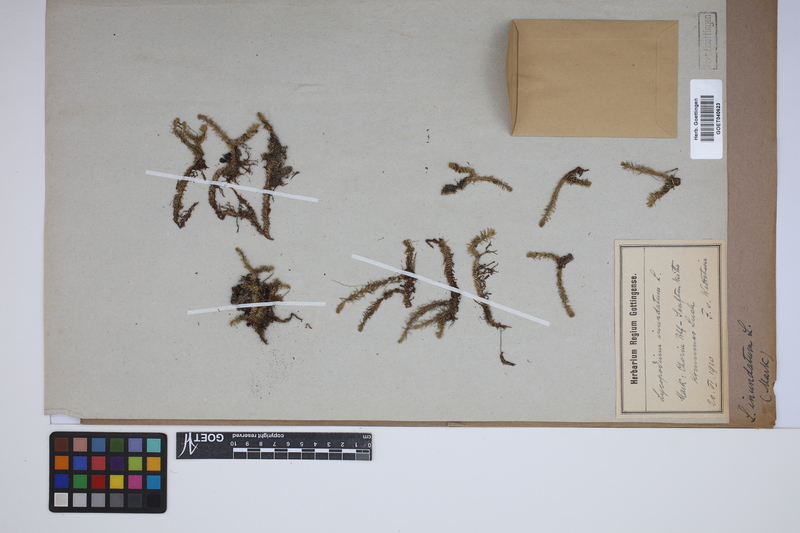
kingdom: Plantae
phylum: Tracheophyta
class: Lycopodiopsida
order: Lycopodiales
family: Lycopodiaceae
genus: Lycopodiella
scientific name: Lycopodiella inundata
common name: Marsh clubmoss
